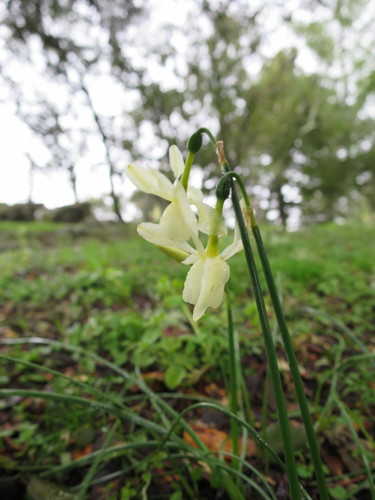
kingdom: Plantae
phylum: Tracheophyta
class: Liliopsida
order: Asparagales
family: Amaryllidaceae
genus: Narcissus
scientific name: Narcissus triandrus
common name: Angel's-tears
